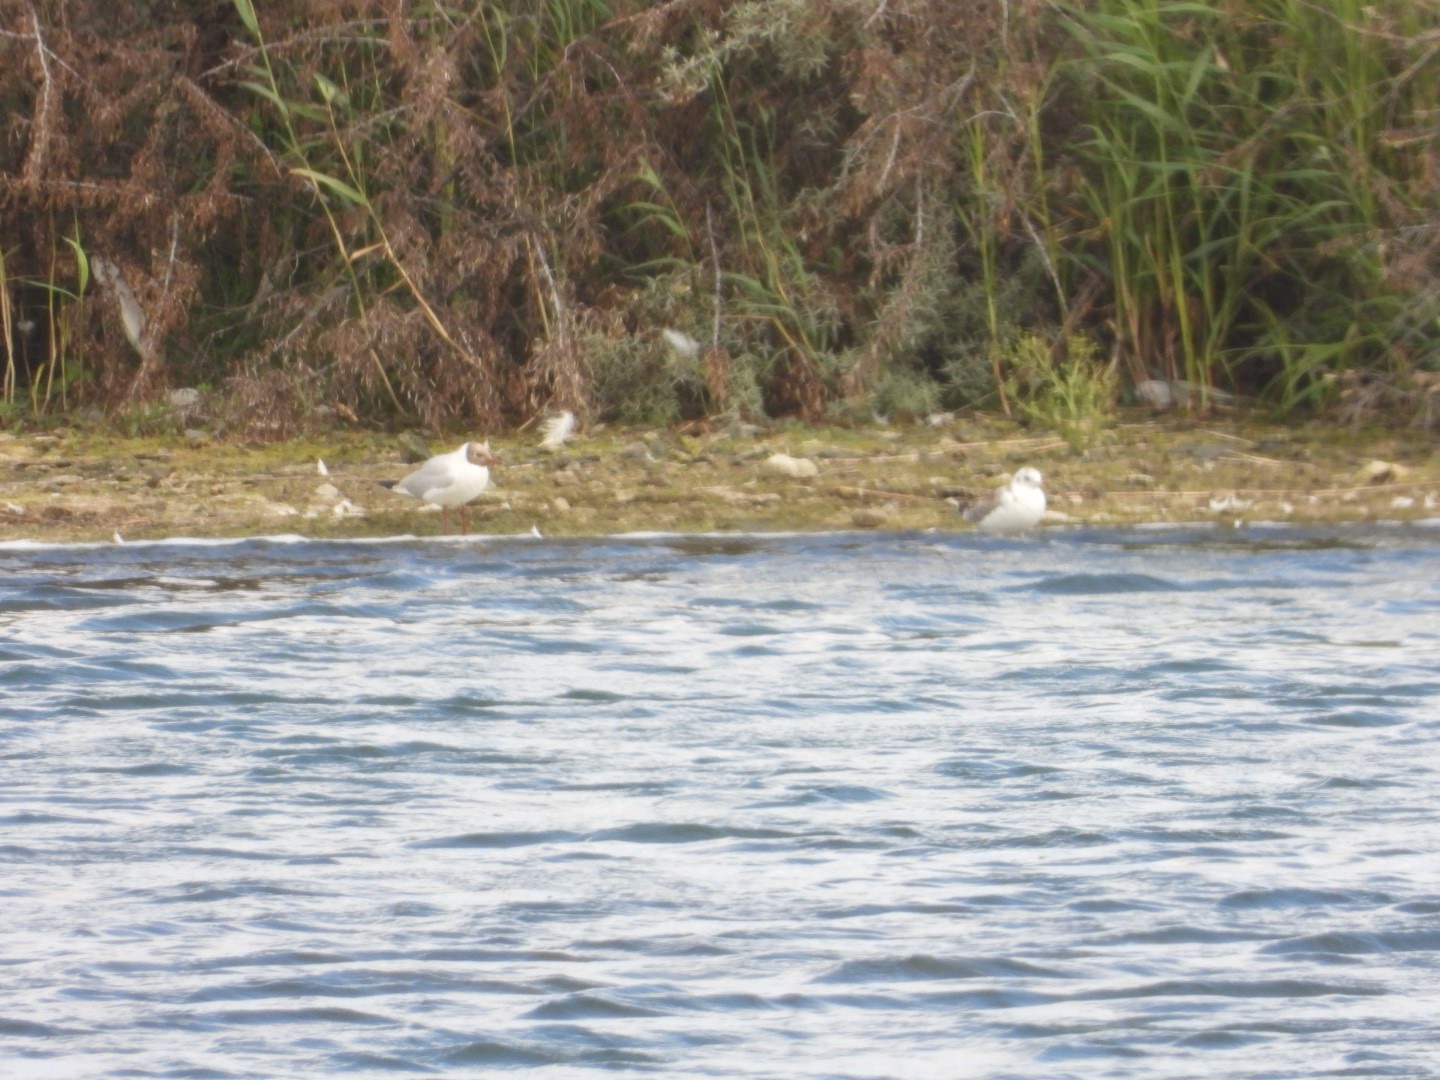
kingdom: Animalia
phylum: Chordata
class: Aves
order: Charadriiformes
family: Laridae
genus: Chroicocephalus
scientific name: Chroicocephalus ridibundus
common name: Hættemåge
